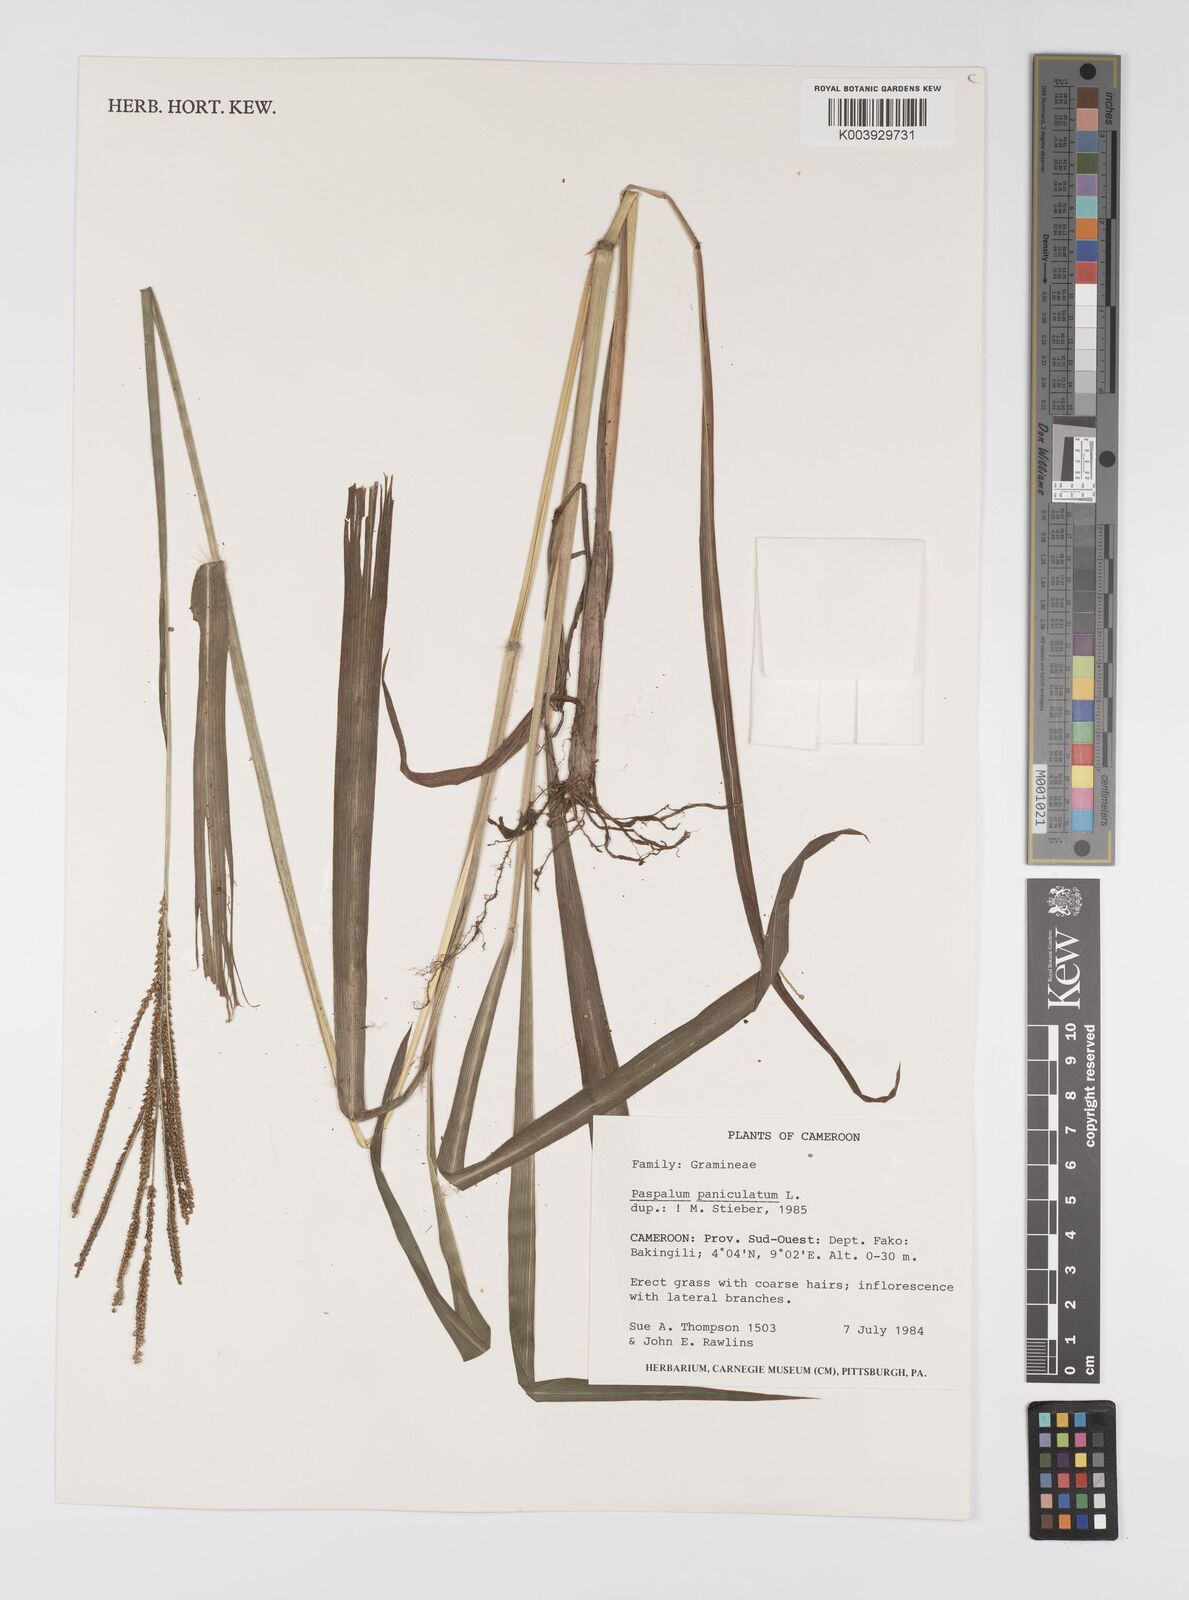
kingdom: Plantae
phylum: Tracheophyta
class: Liliopsida
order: Poales
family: Poaceae
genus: Paspalum
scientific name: Paspalum paniculatum
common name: Arrocillo
